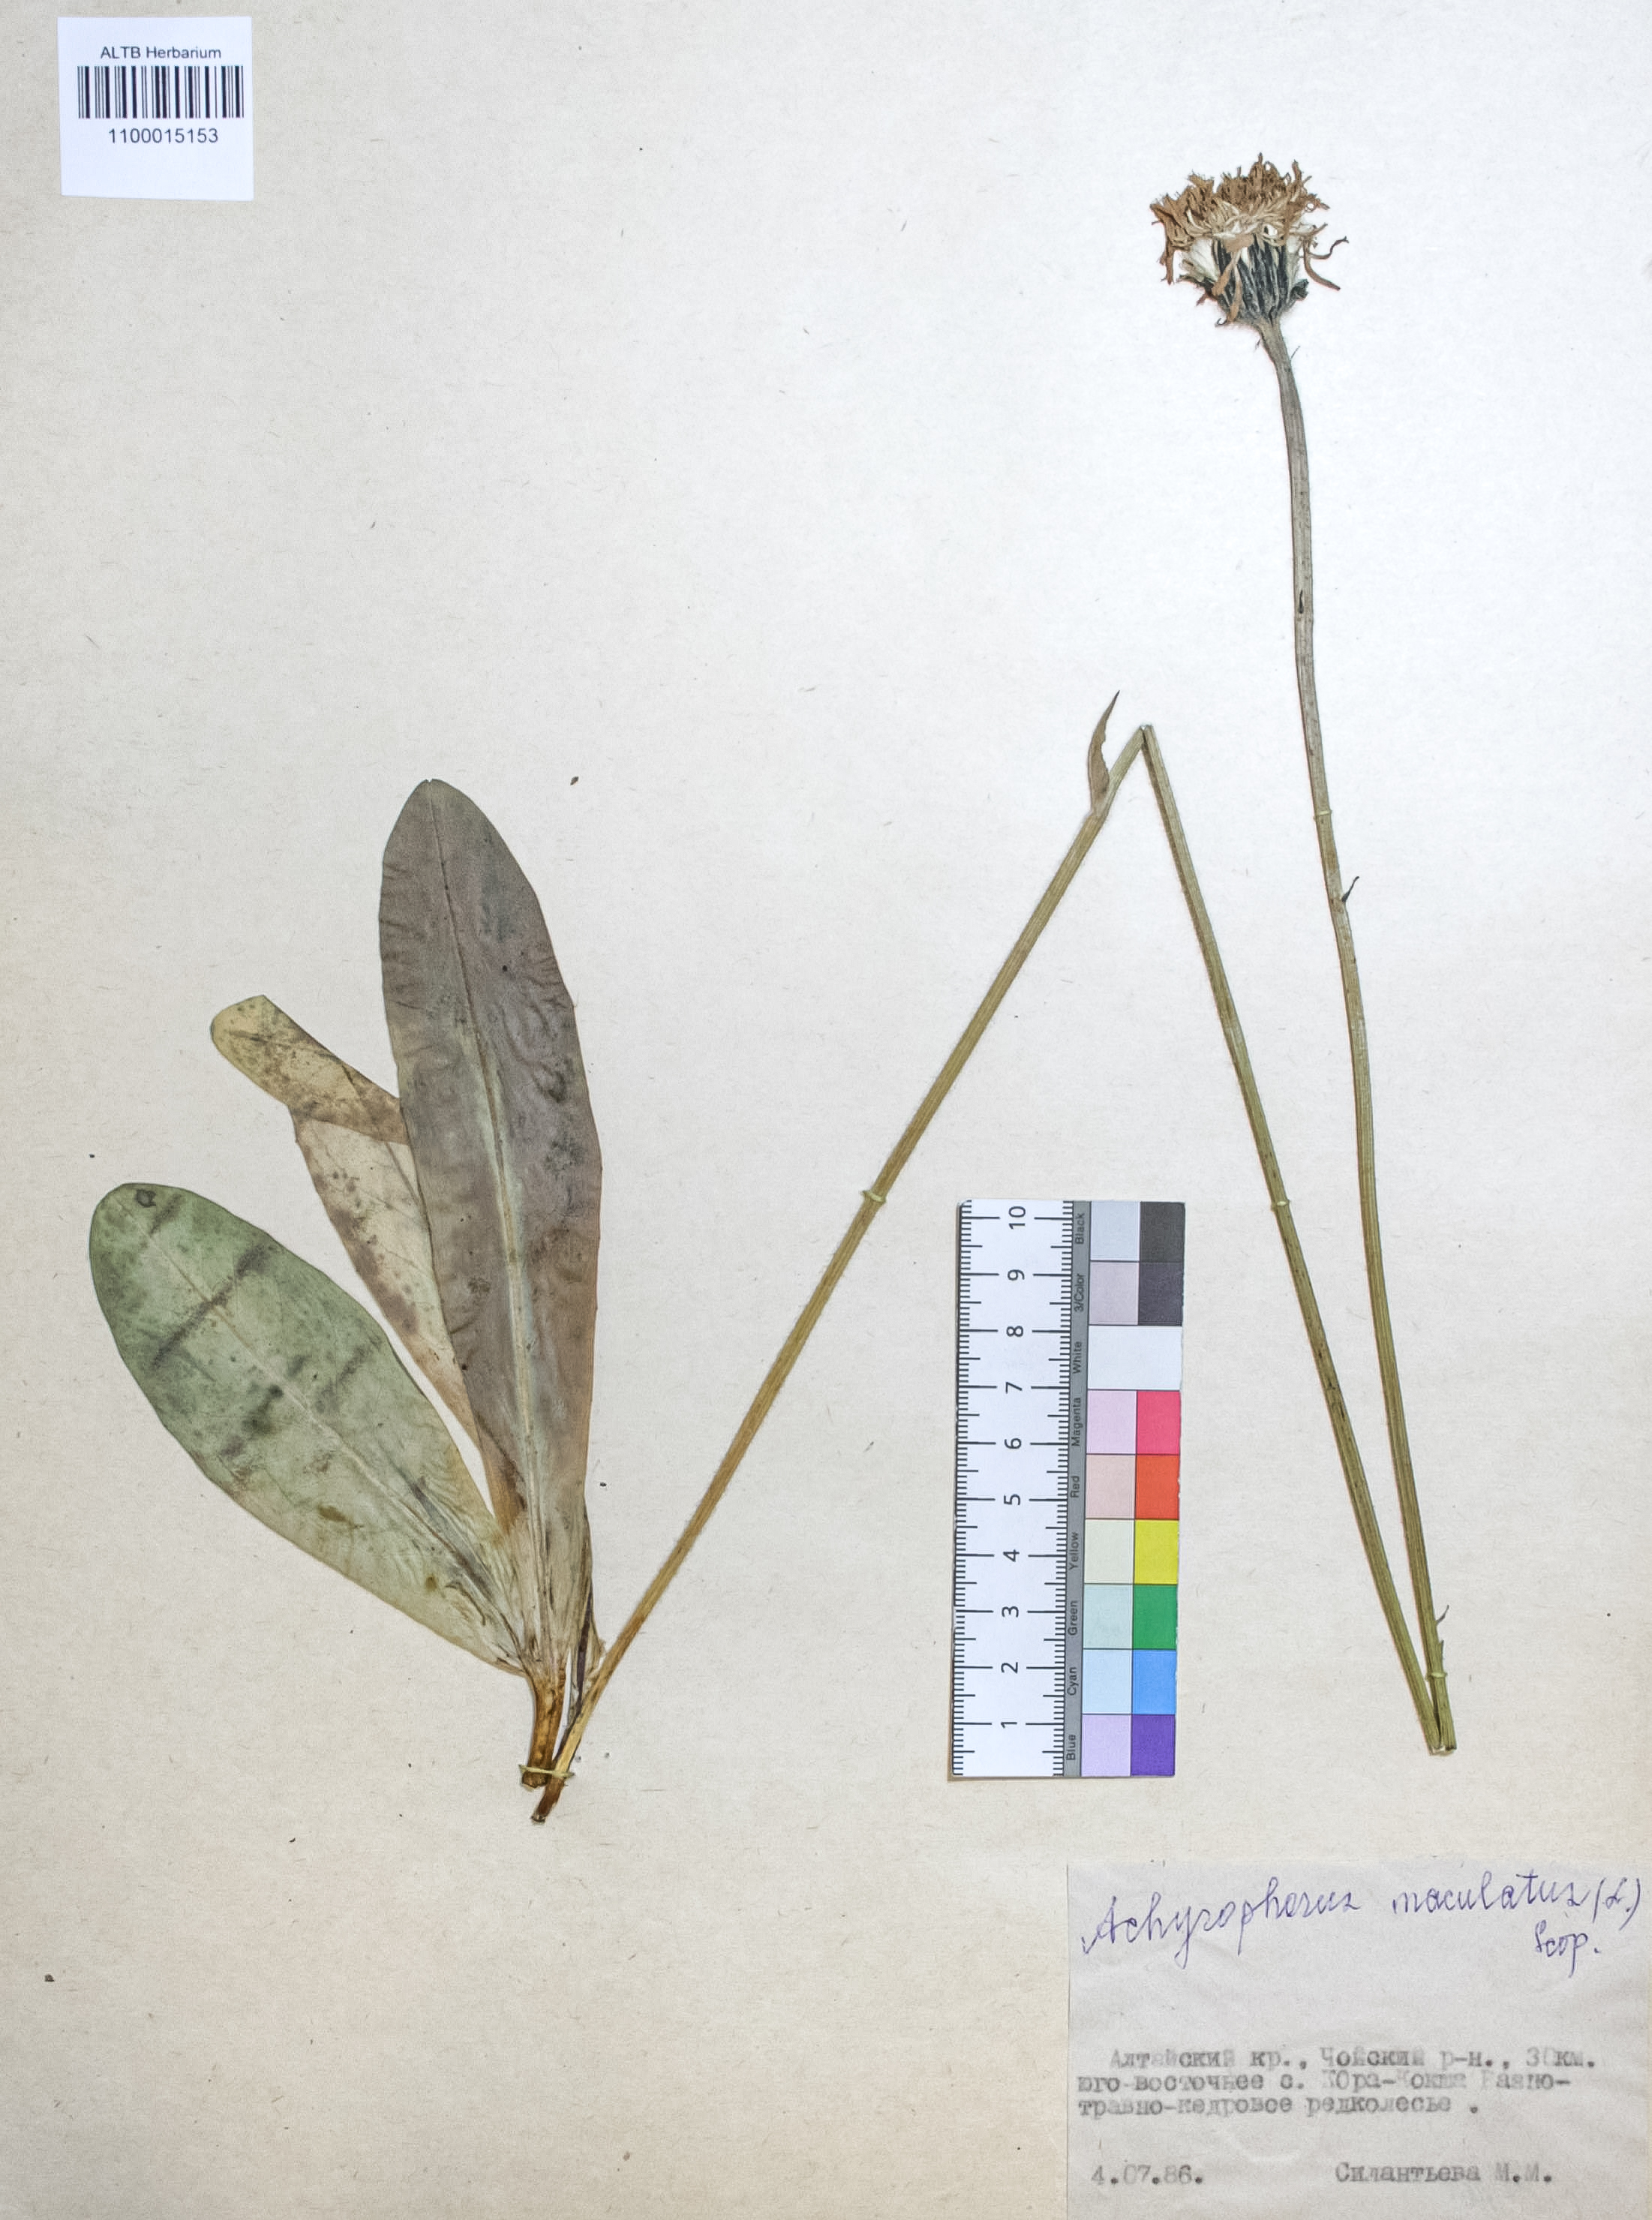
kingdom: Plantae
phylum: Tracheophyta
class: Magnoliopsida
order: Asterales
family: Asteraceae
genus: Trommsdorffia
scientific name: Trommsdorffia maculata
